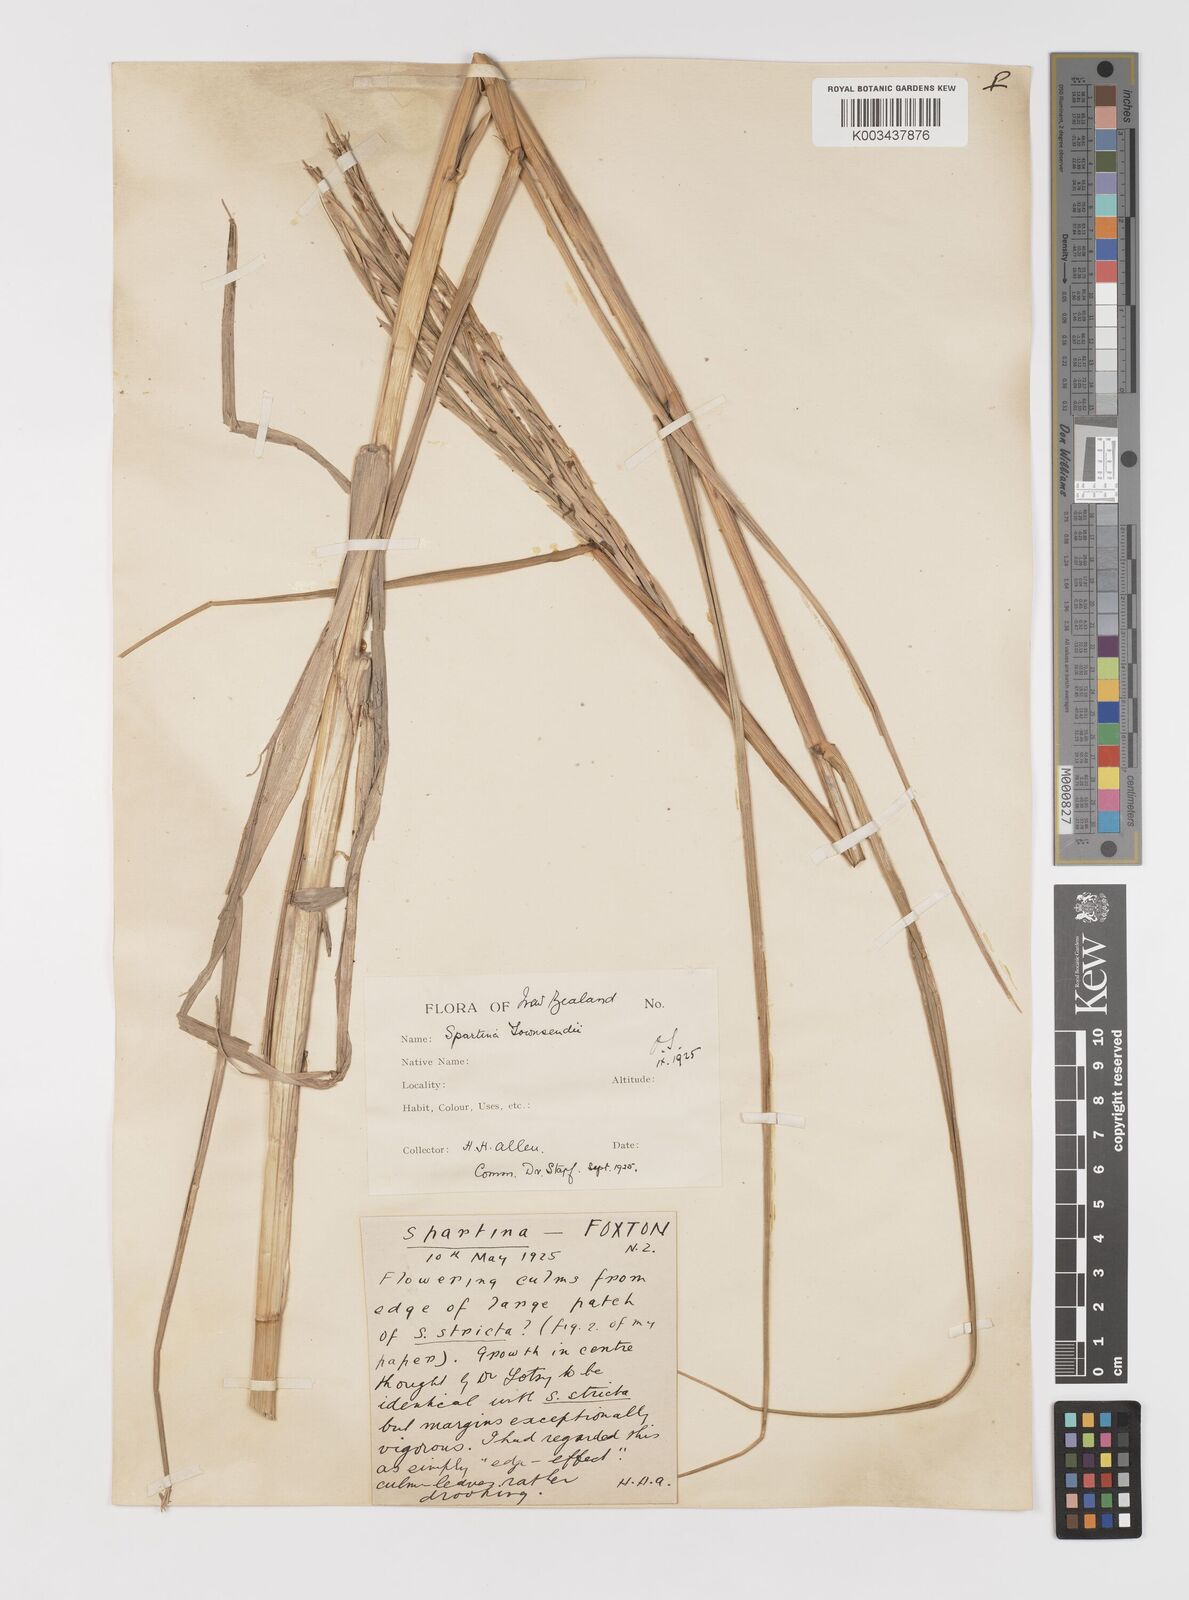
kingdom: Plantae
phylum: Tracheophyta
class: Liliopsida
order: Poales
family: Poaceae
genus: Sporobolus
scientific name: Sporobolus townsendii
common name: Townsend's cordgrass
